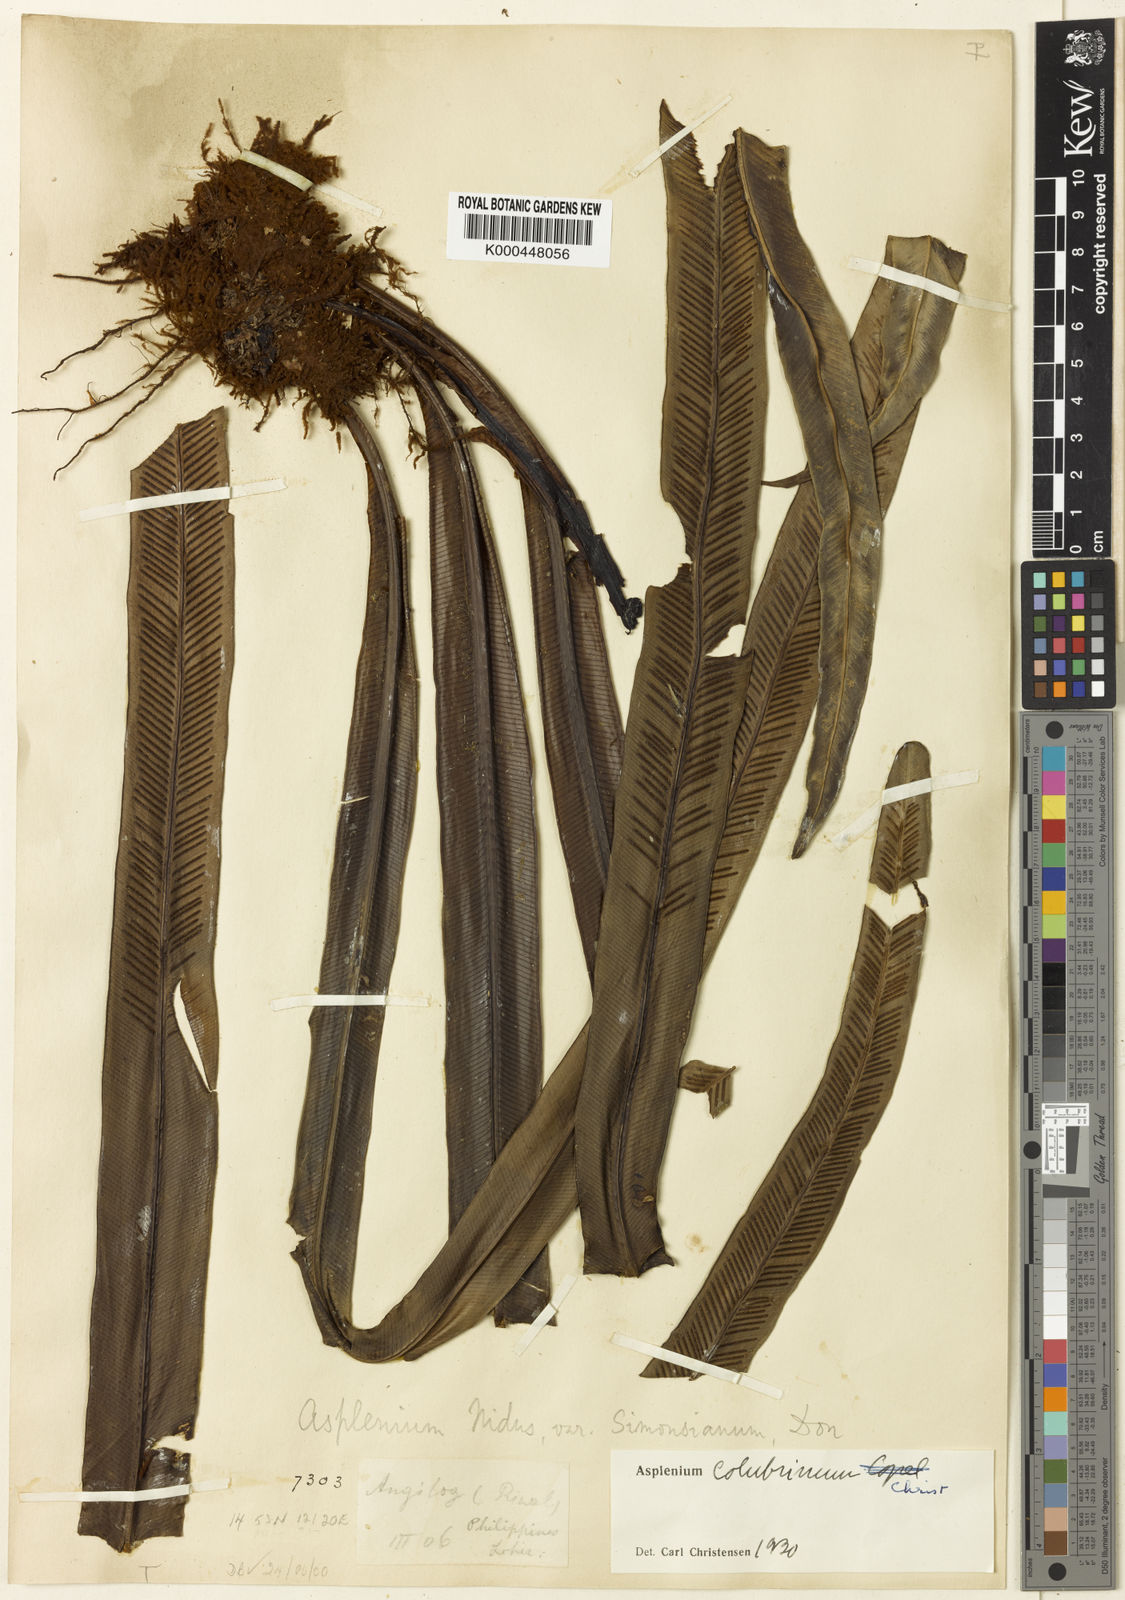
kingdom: Plantae
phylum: Tracheophyta
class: Polypodiopsida
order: Polypodiales
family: Aspleniaceae
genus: Asplenium
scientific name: Asplenium colubrinum
